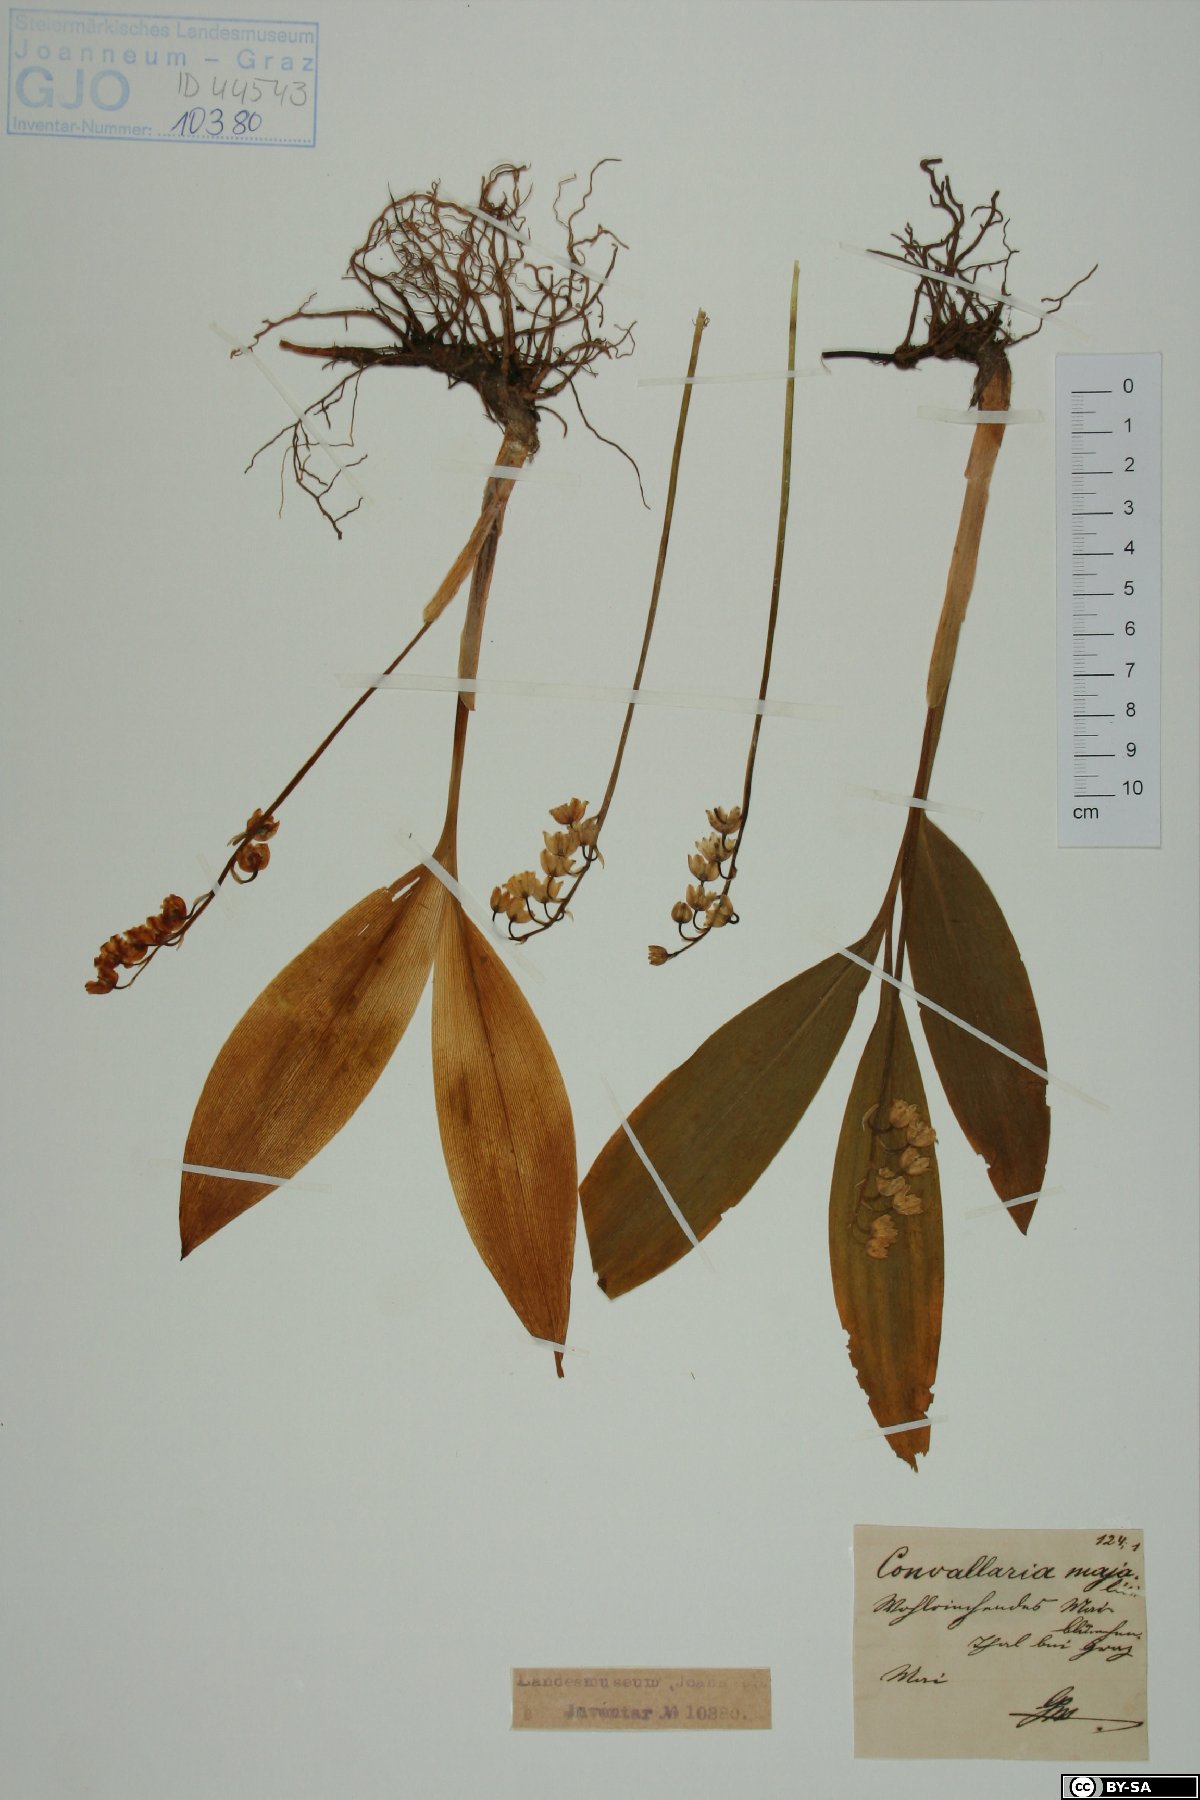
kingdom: Plantae
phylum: Tracheophyta
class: Liliopsida
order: Asparagales
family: Asparagaceae
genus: Convallaria
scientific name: Convallaria majalis
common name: Lily-of-the-valley
